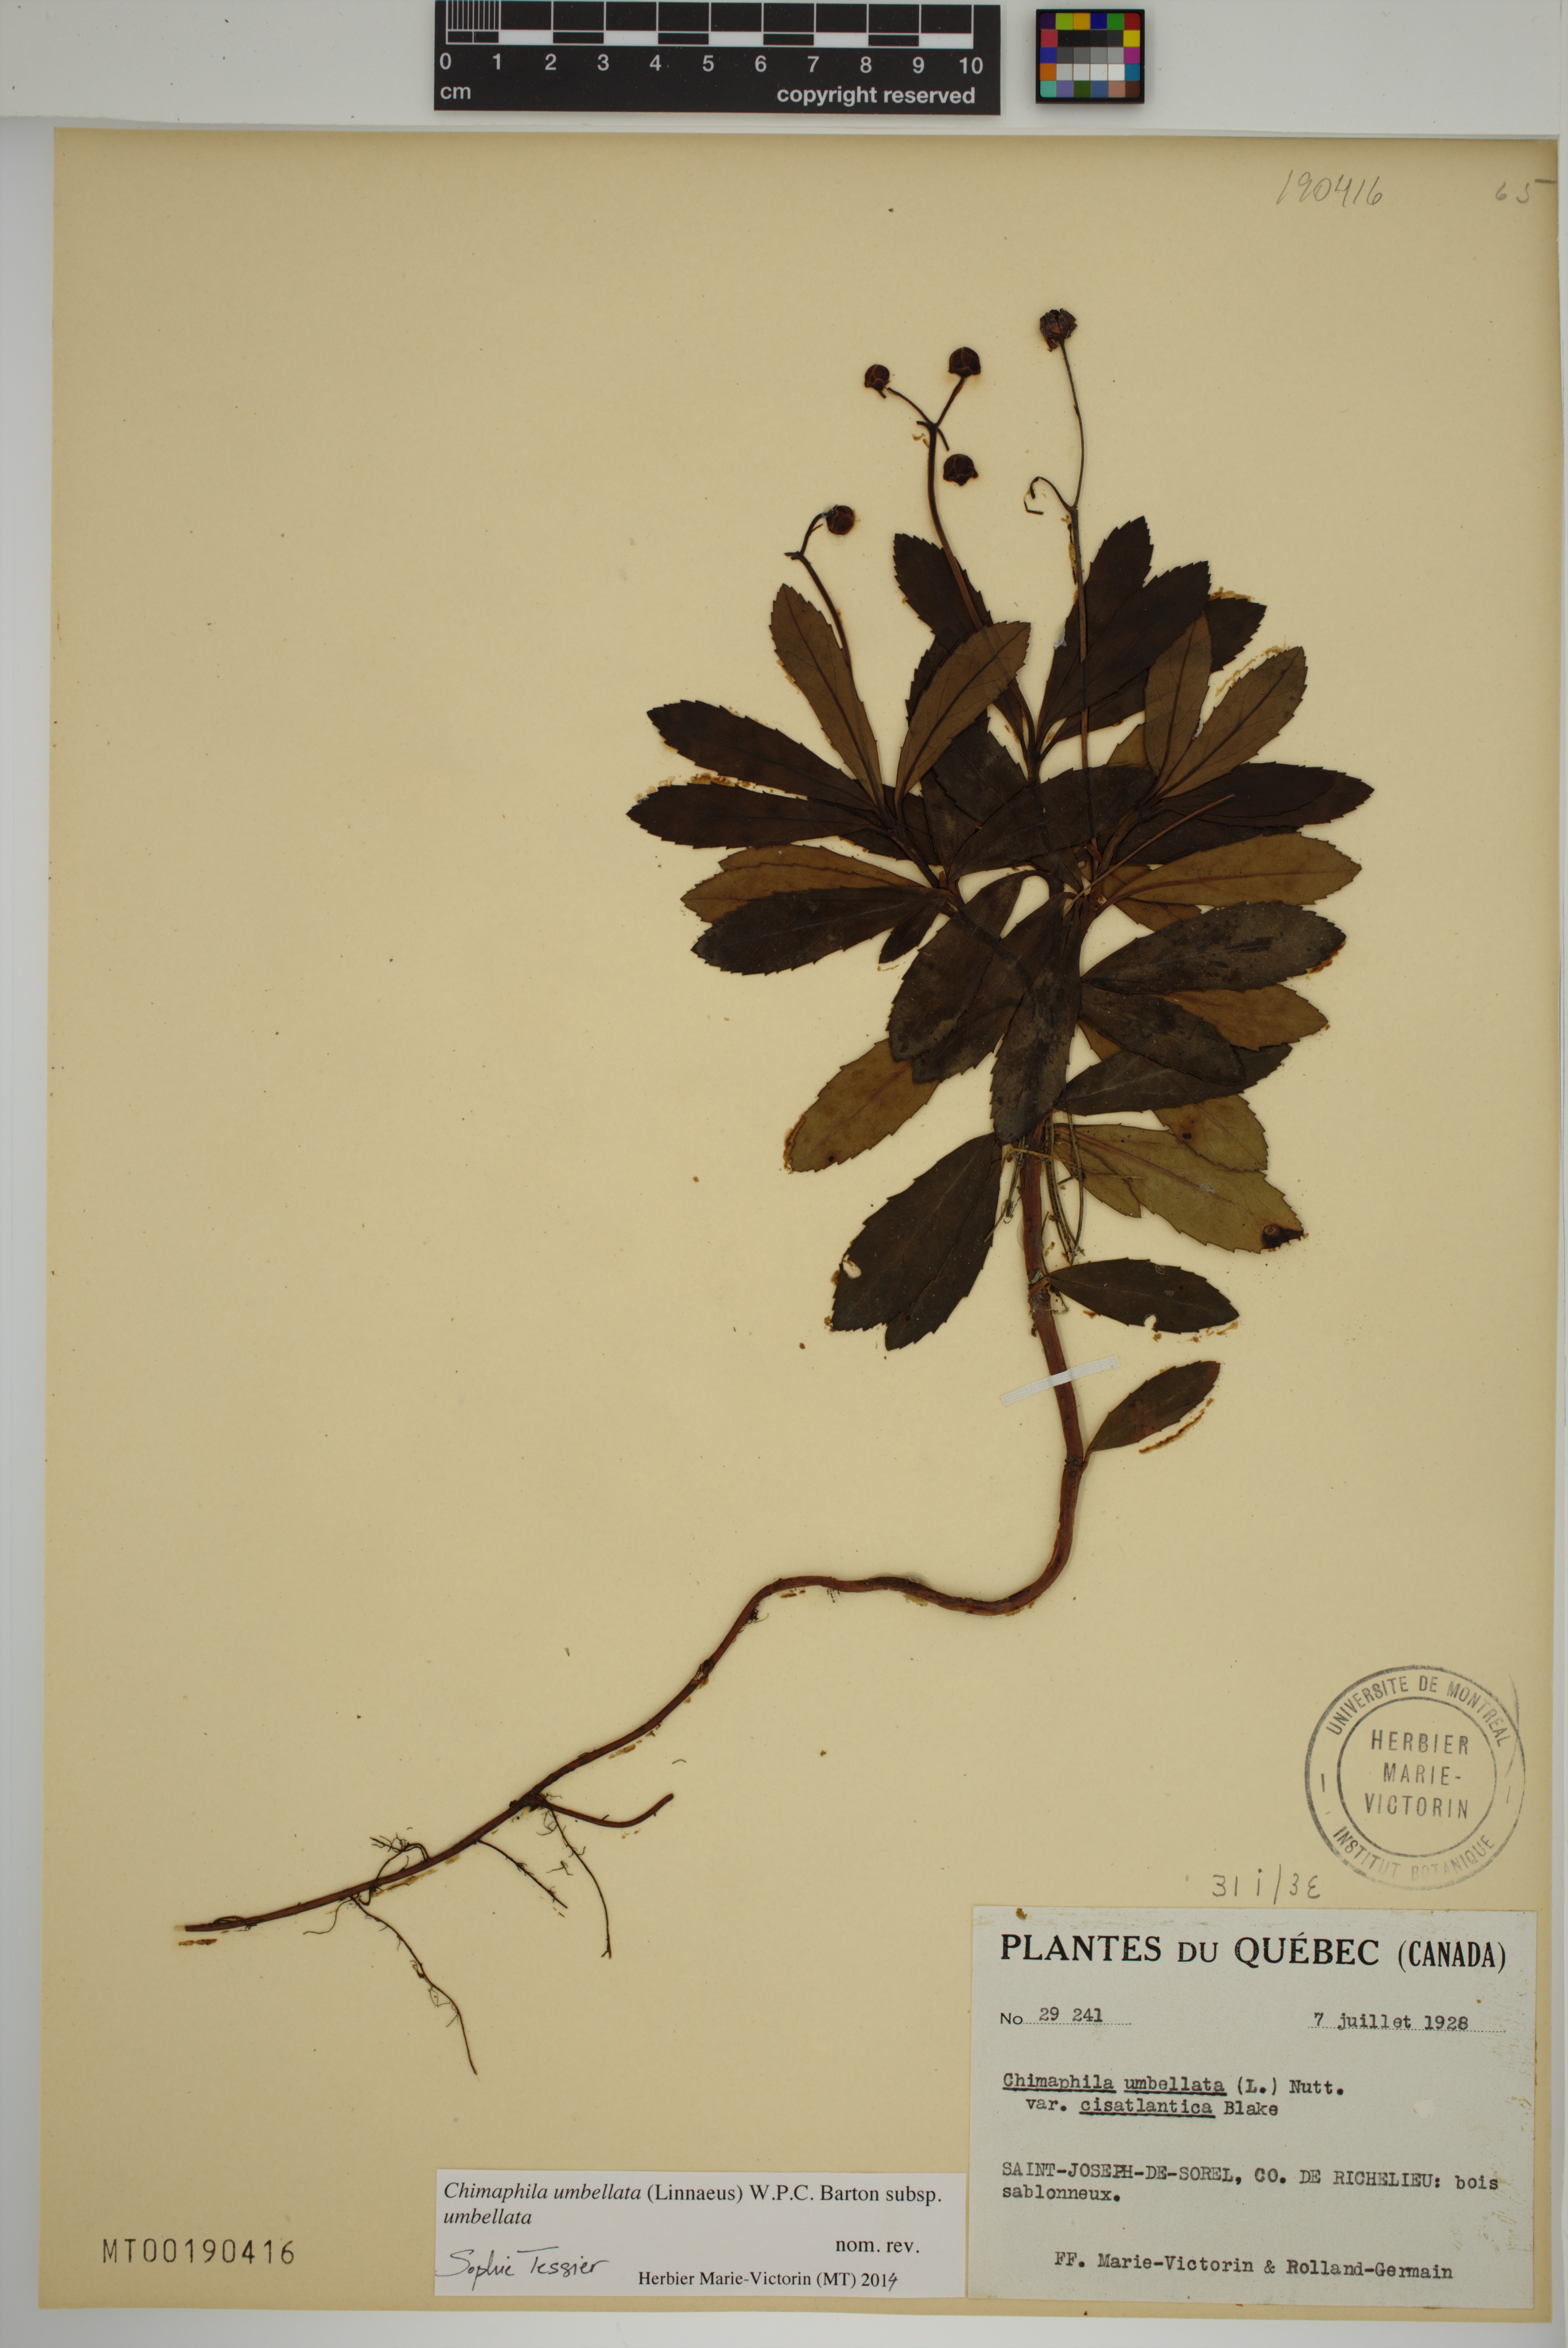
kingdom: Plantae
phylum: Tracheophyta
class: Magnoliopsida
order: Ericales
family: Ericaceae
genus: Chimaphila
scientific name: Chimaphila umbellata
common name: Pipsissewa
